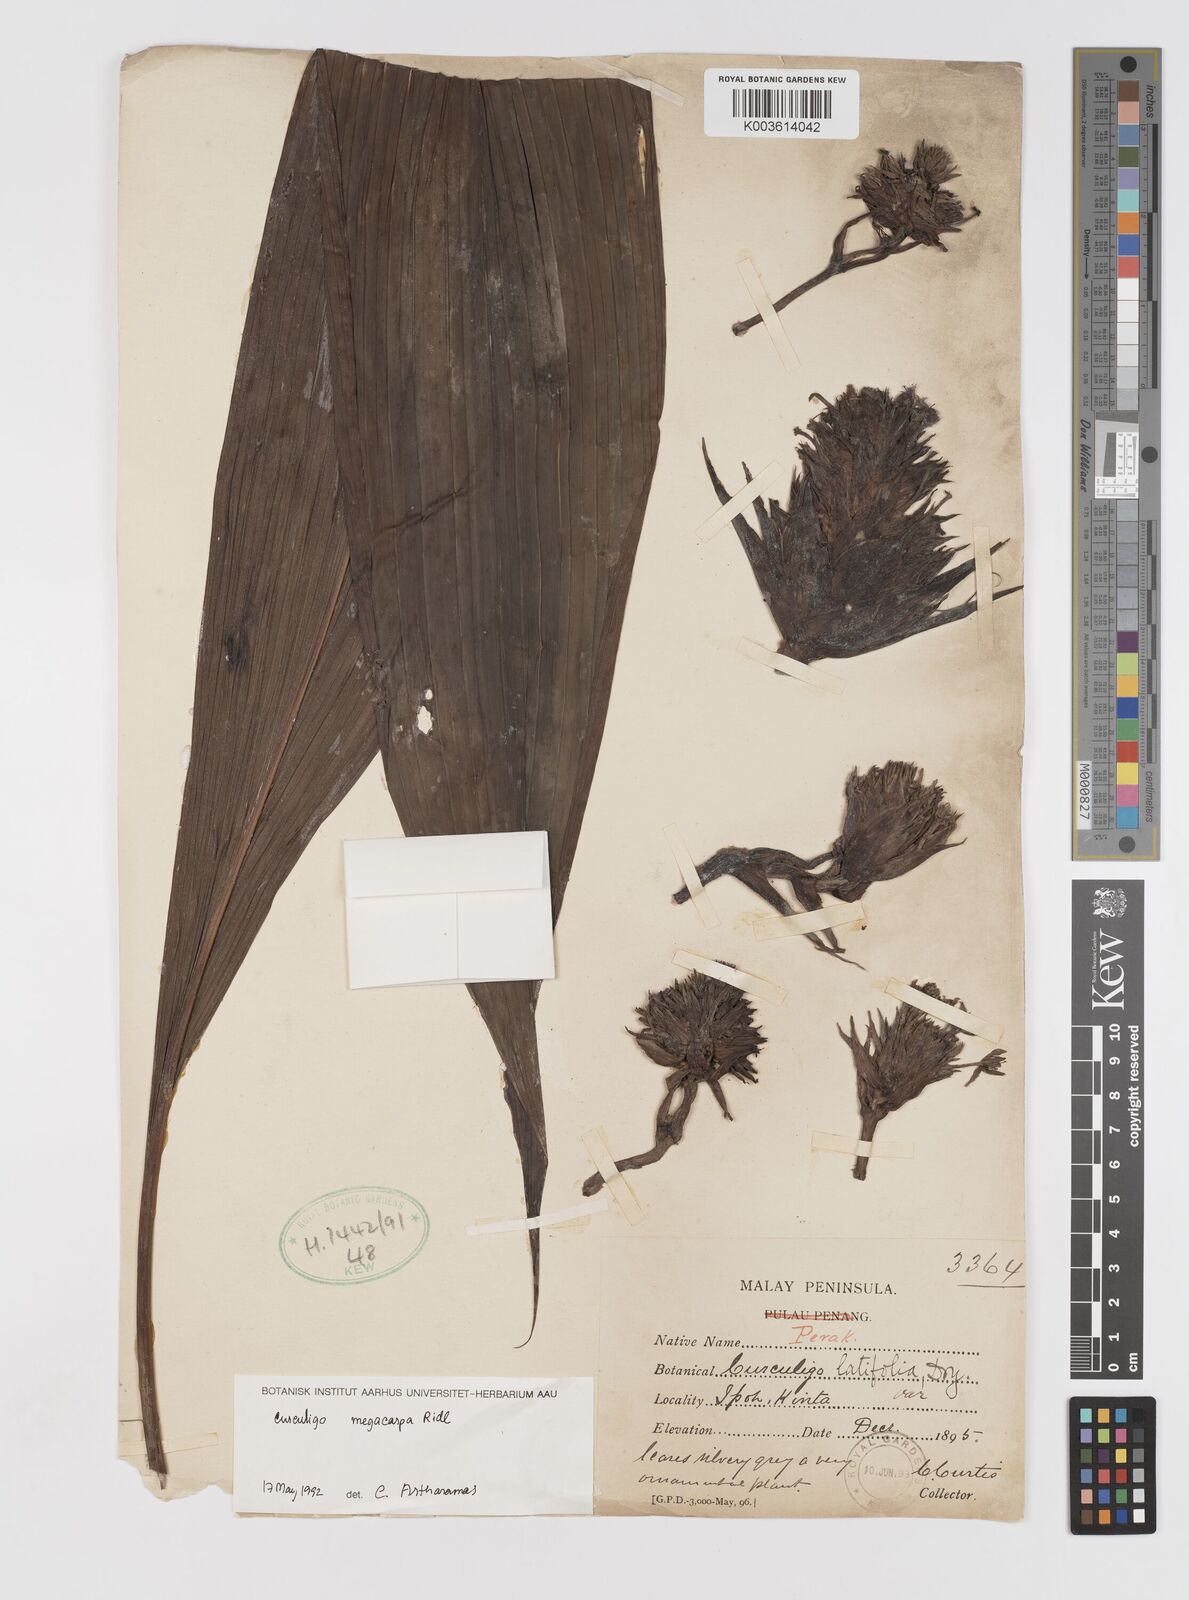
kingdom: Plantae
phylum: Tracheophyta
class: Liliopsida
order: Asparagales
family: Hypoxidaceae
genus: Curculigo
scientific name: Curculigo latifolia
